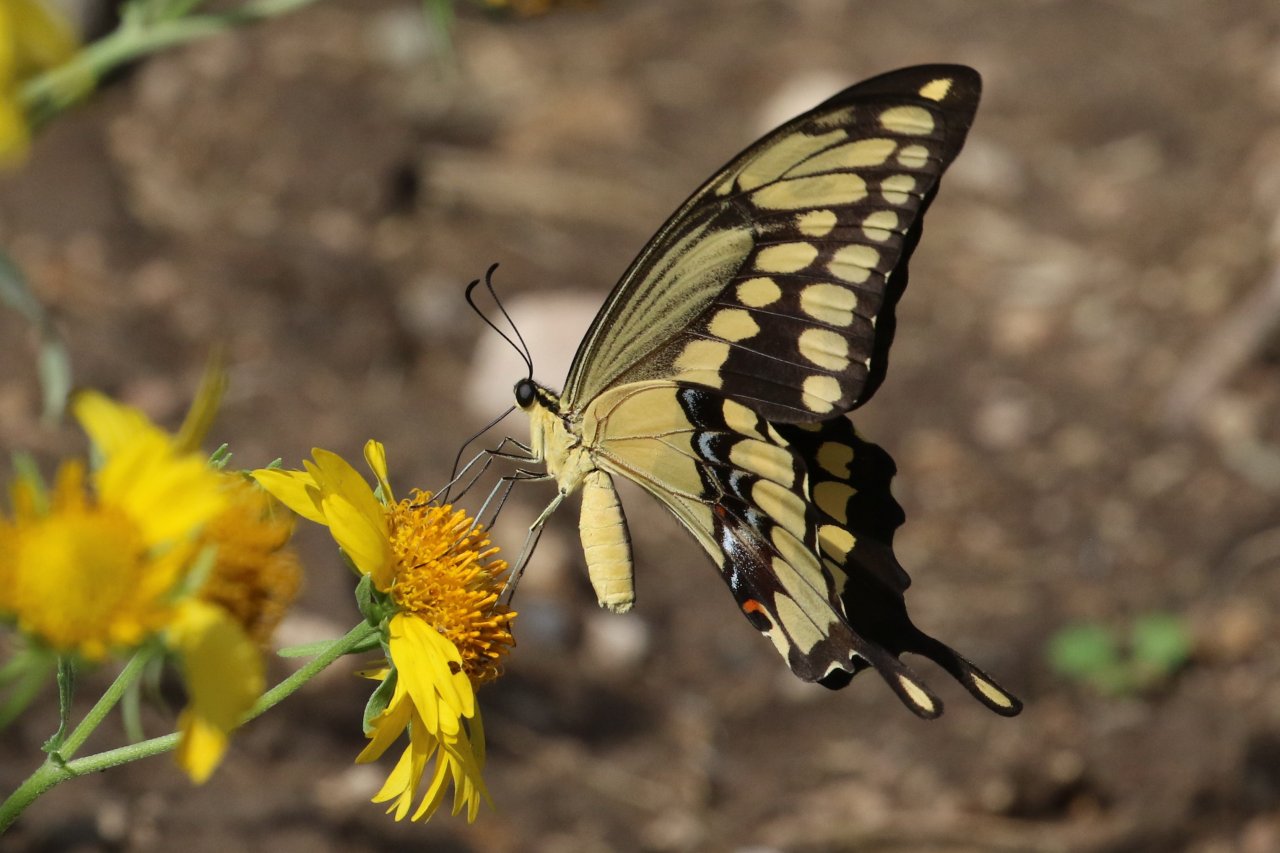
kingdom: Animalia
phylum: Arthropoda
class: Insecta
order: Lepidoptera
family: Papilionidae
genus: Papilio
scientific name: Papilio rumiko
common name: Western Giant Swallowtail
